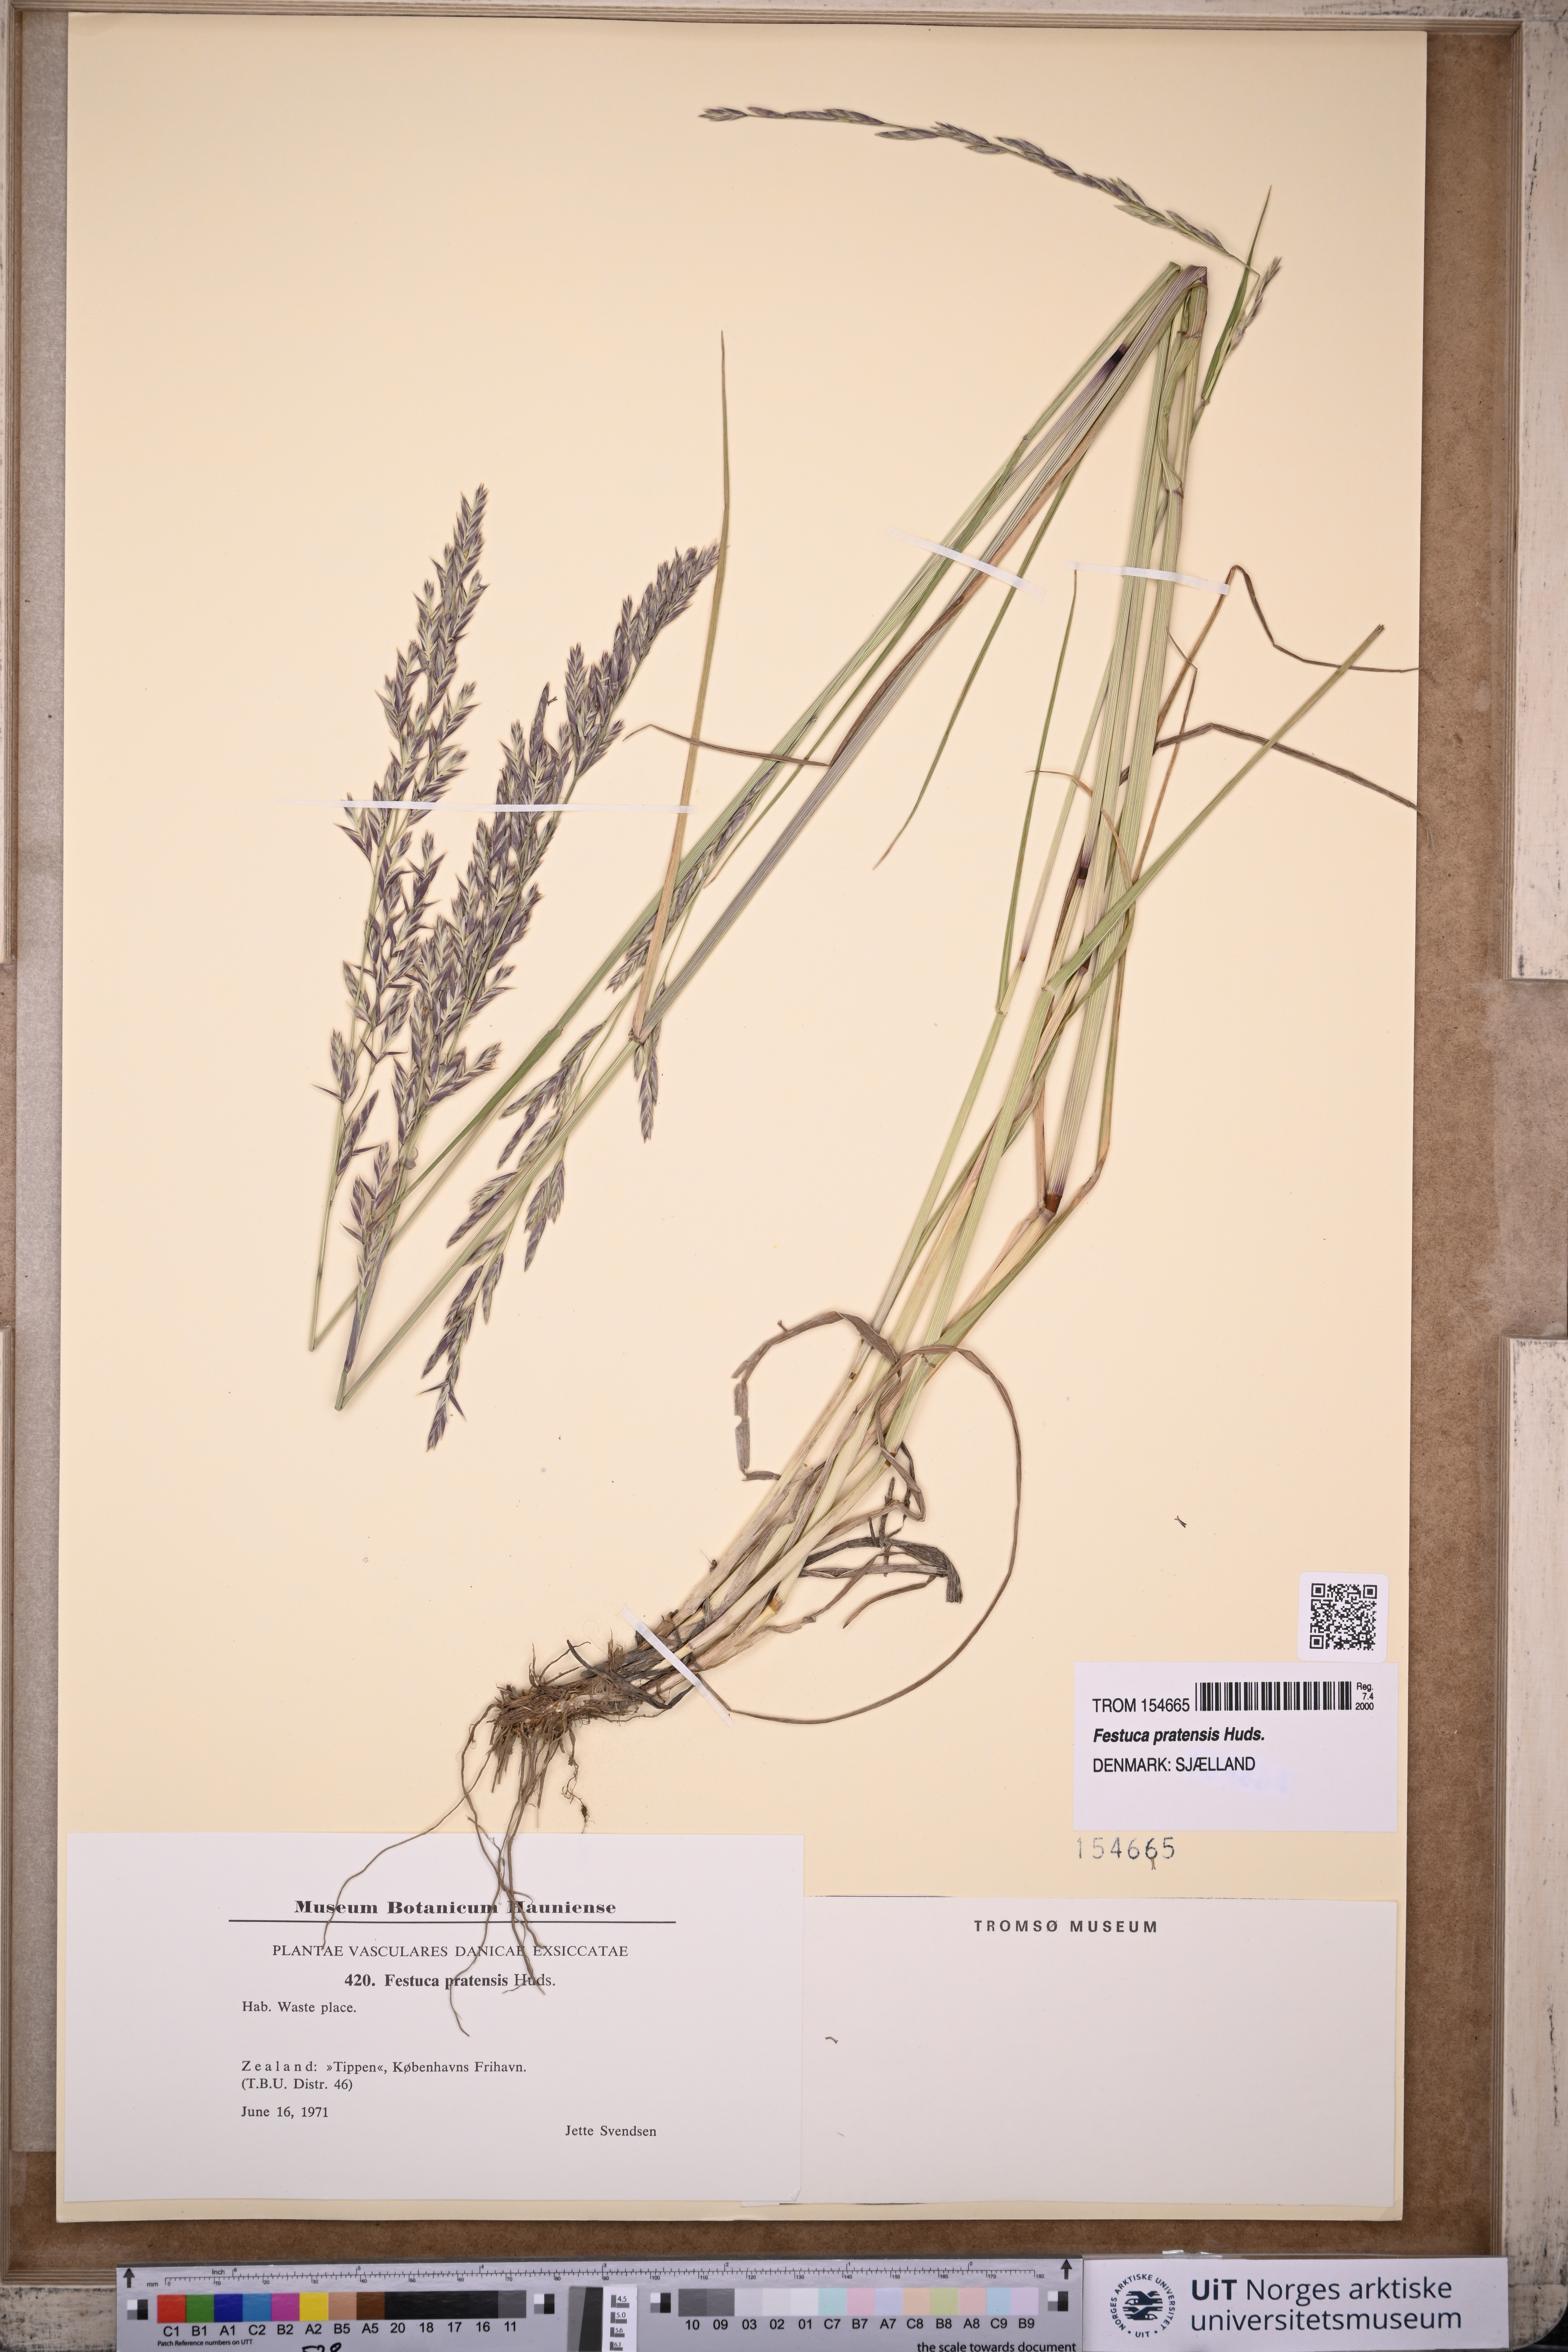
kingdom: Plantae
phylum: Tracheophyta
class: Liliopsida
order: Poales
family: Poaceae
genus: Lolium
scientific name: Lolium pratense
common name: Dover grass
